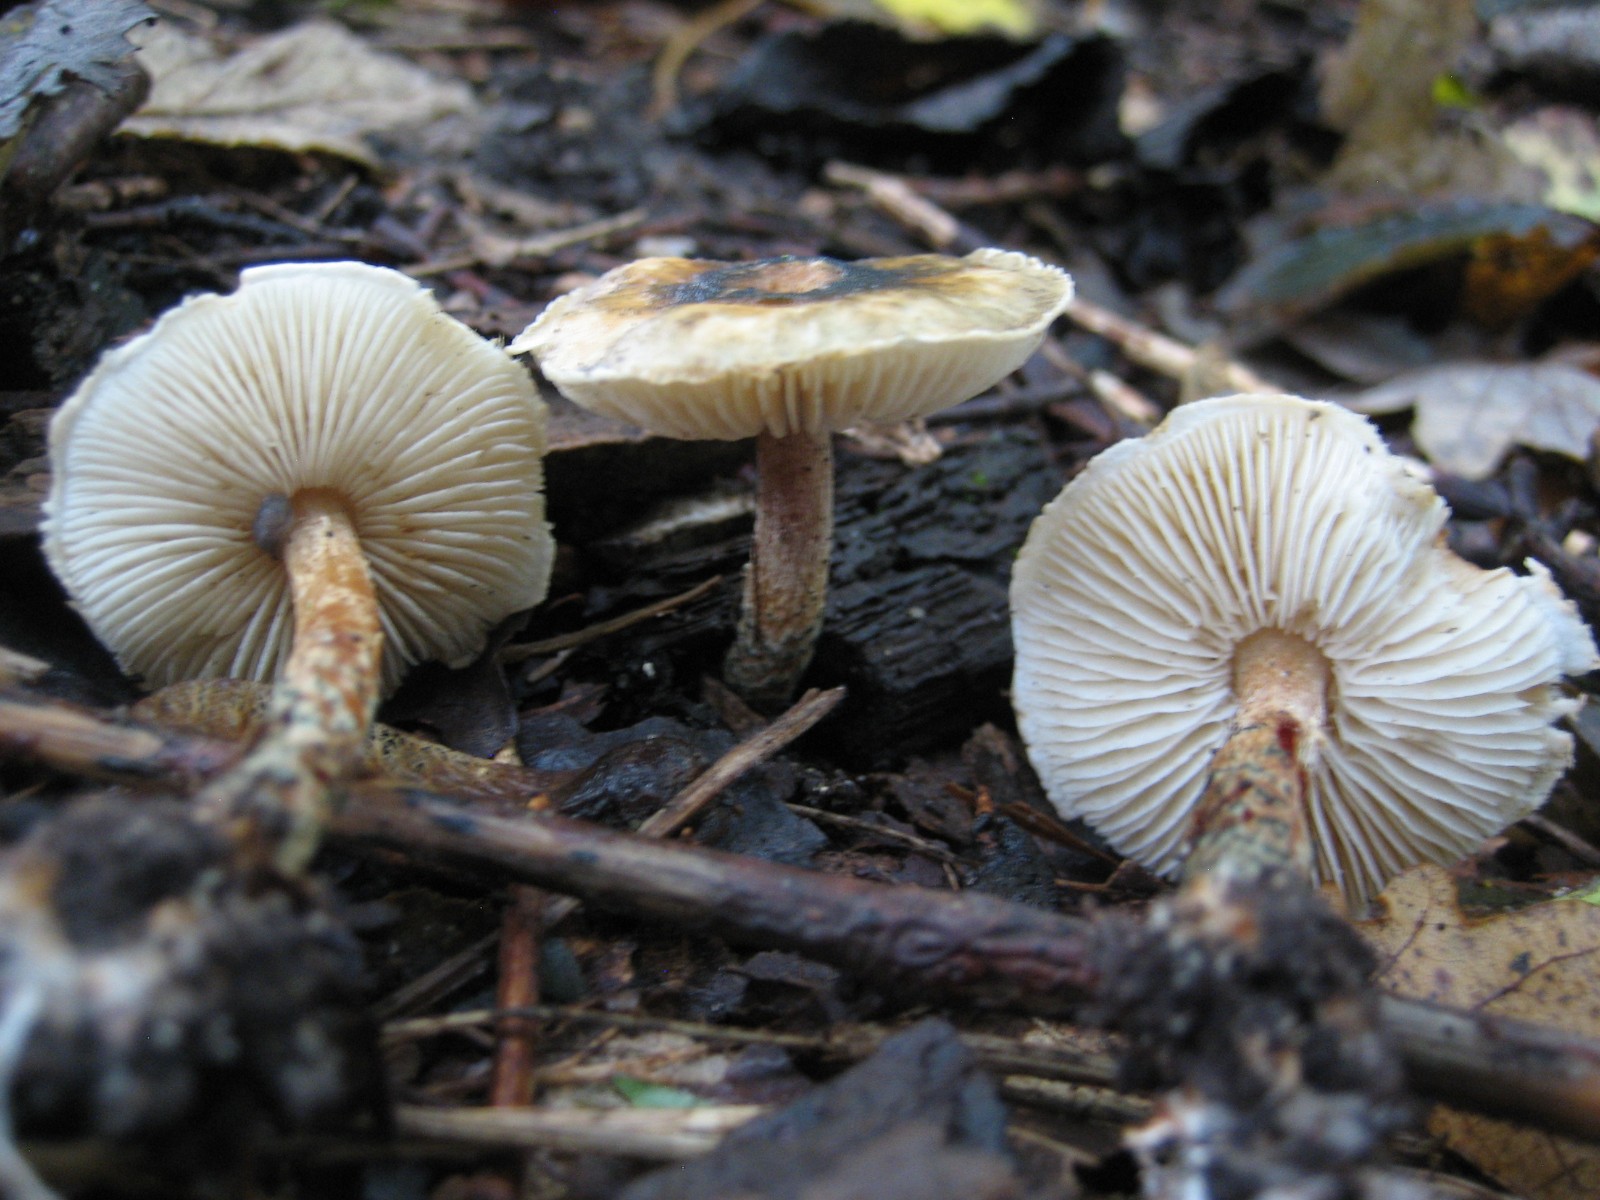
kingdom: Fungi
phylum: Basidiomycota
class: Agaricomycetes
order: Agaricales
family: Agaricaceae
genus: Lepiota
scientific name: Lepiota grangei
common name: grønskællet parasolhat
